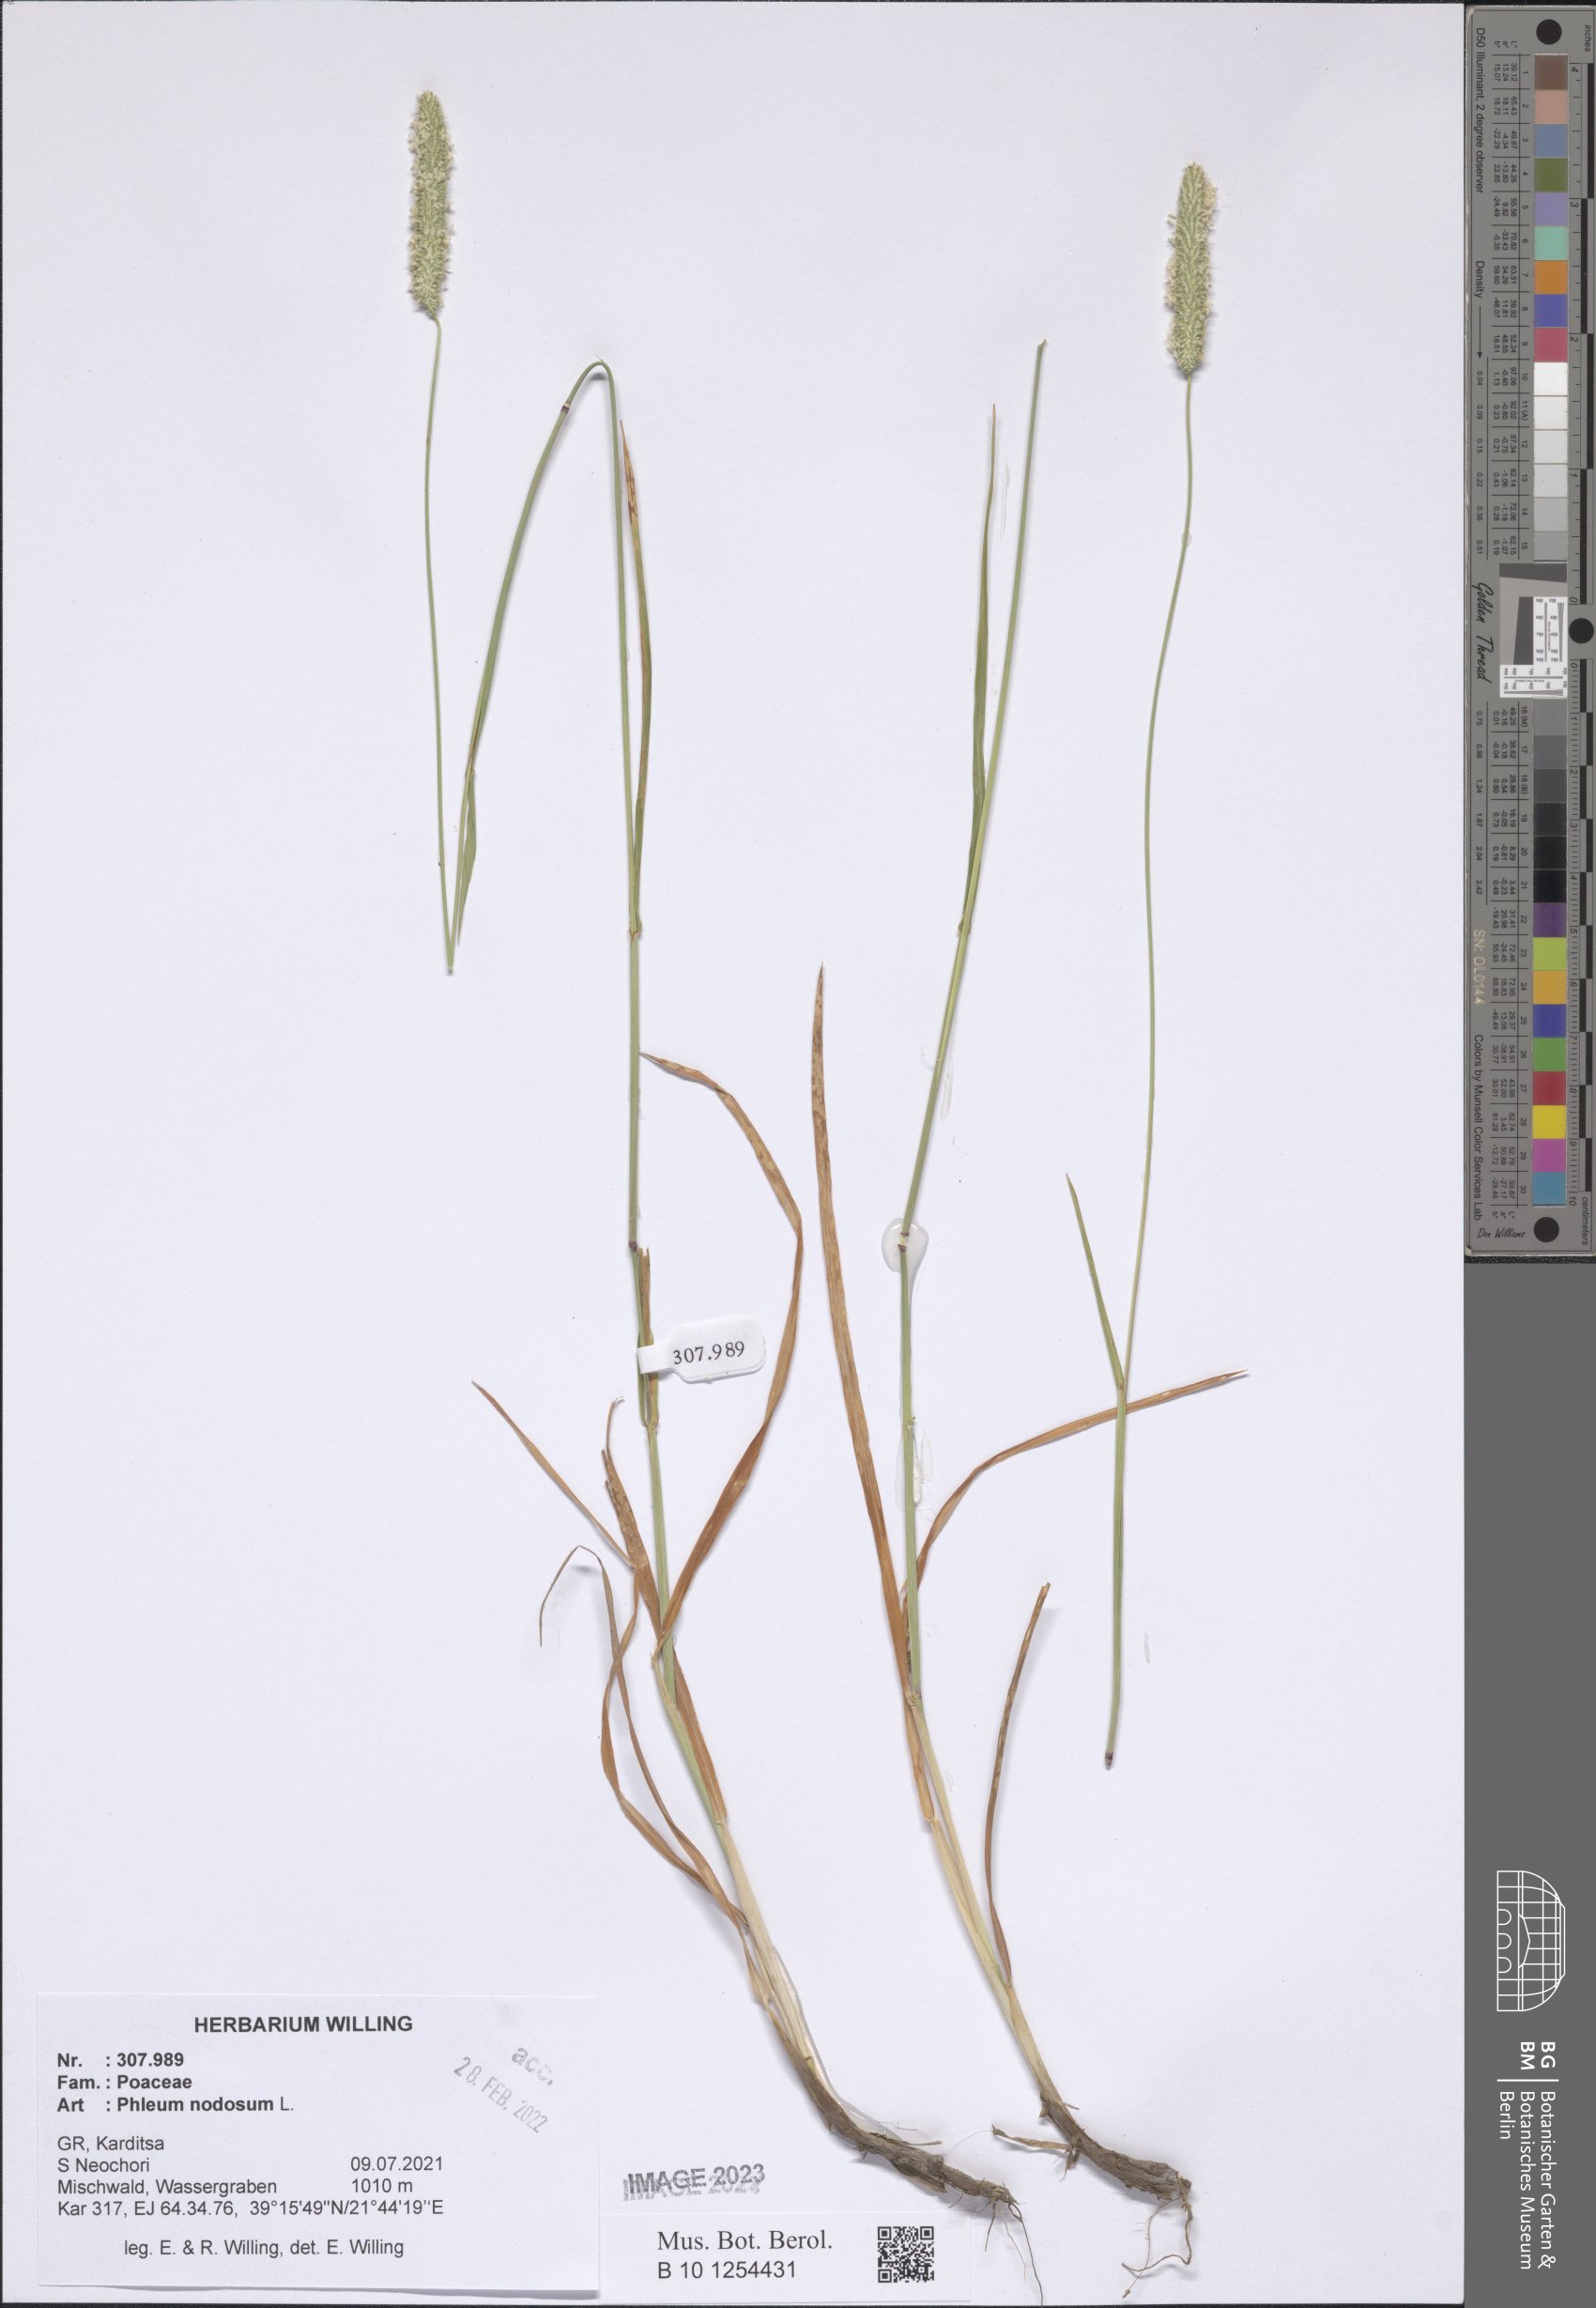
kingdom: Plantae
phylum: Tracheophyta
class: Liliopsida
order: Poales
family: Poaceae
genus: Phleum
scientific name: Phleum pratense
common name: Timothy grass
